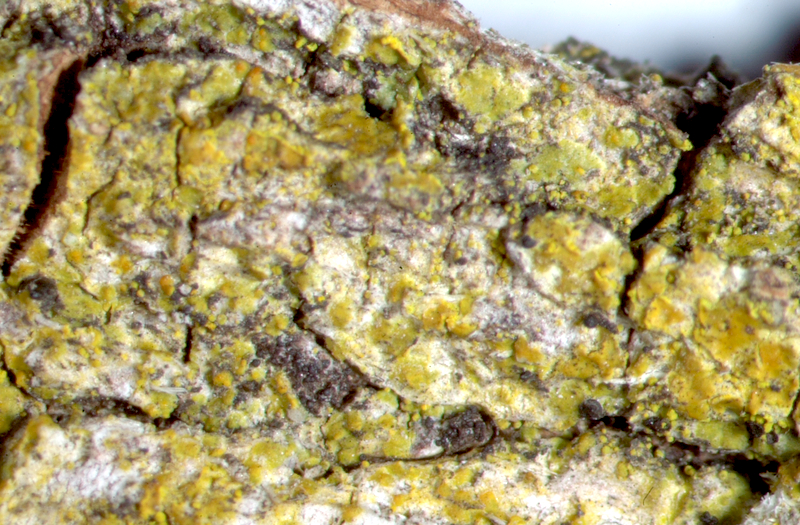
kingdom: Fungi
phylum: Ascomycota
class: Lecanoromycetes
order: Teloschistales
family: Teloschistaceae
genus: Athallia
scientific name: Athallia alnetorum
